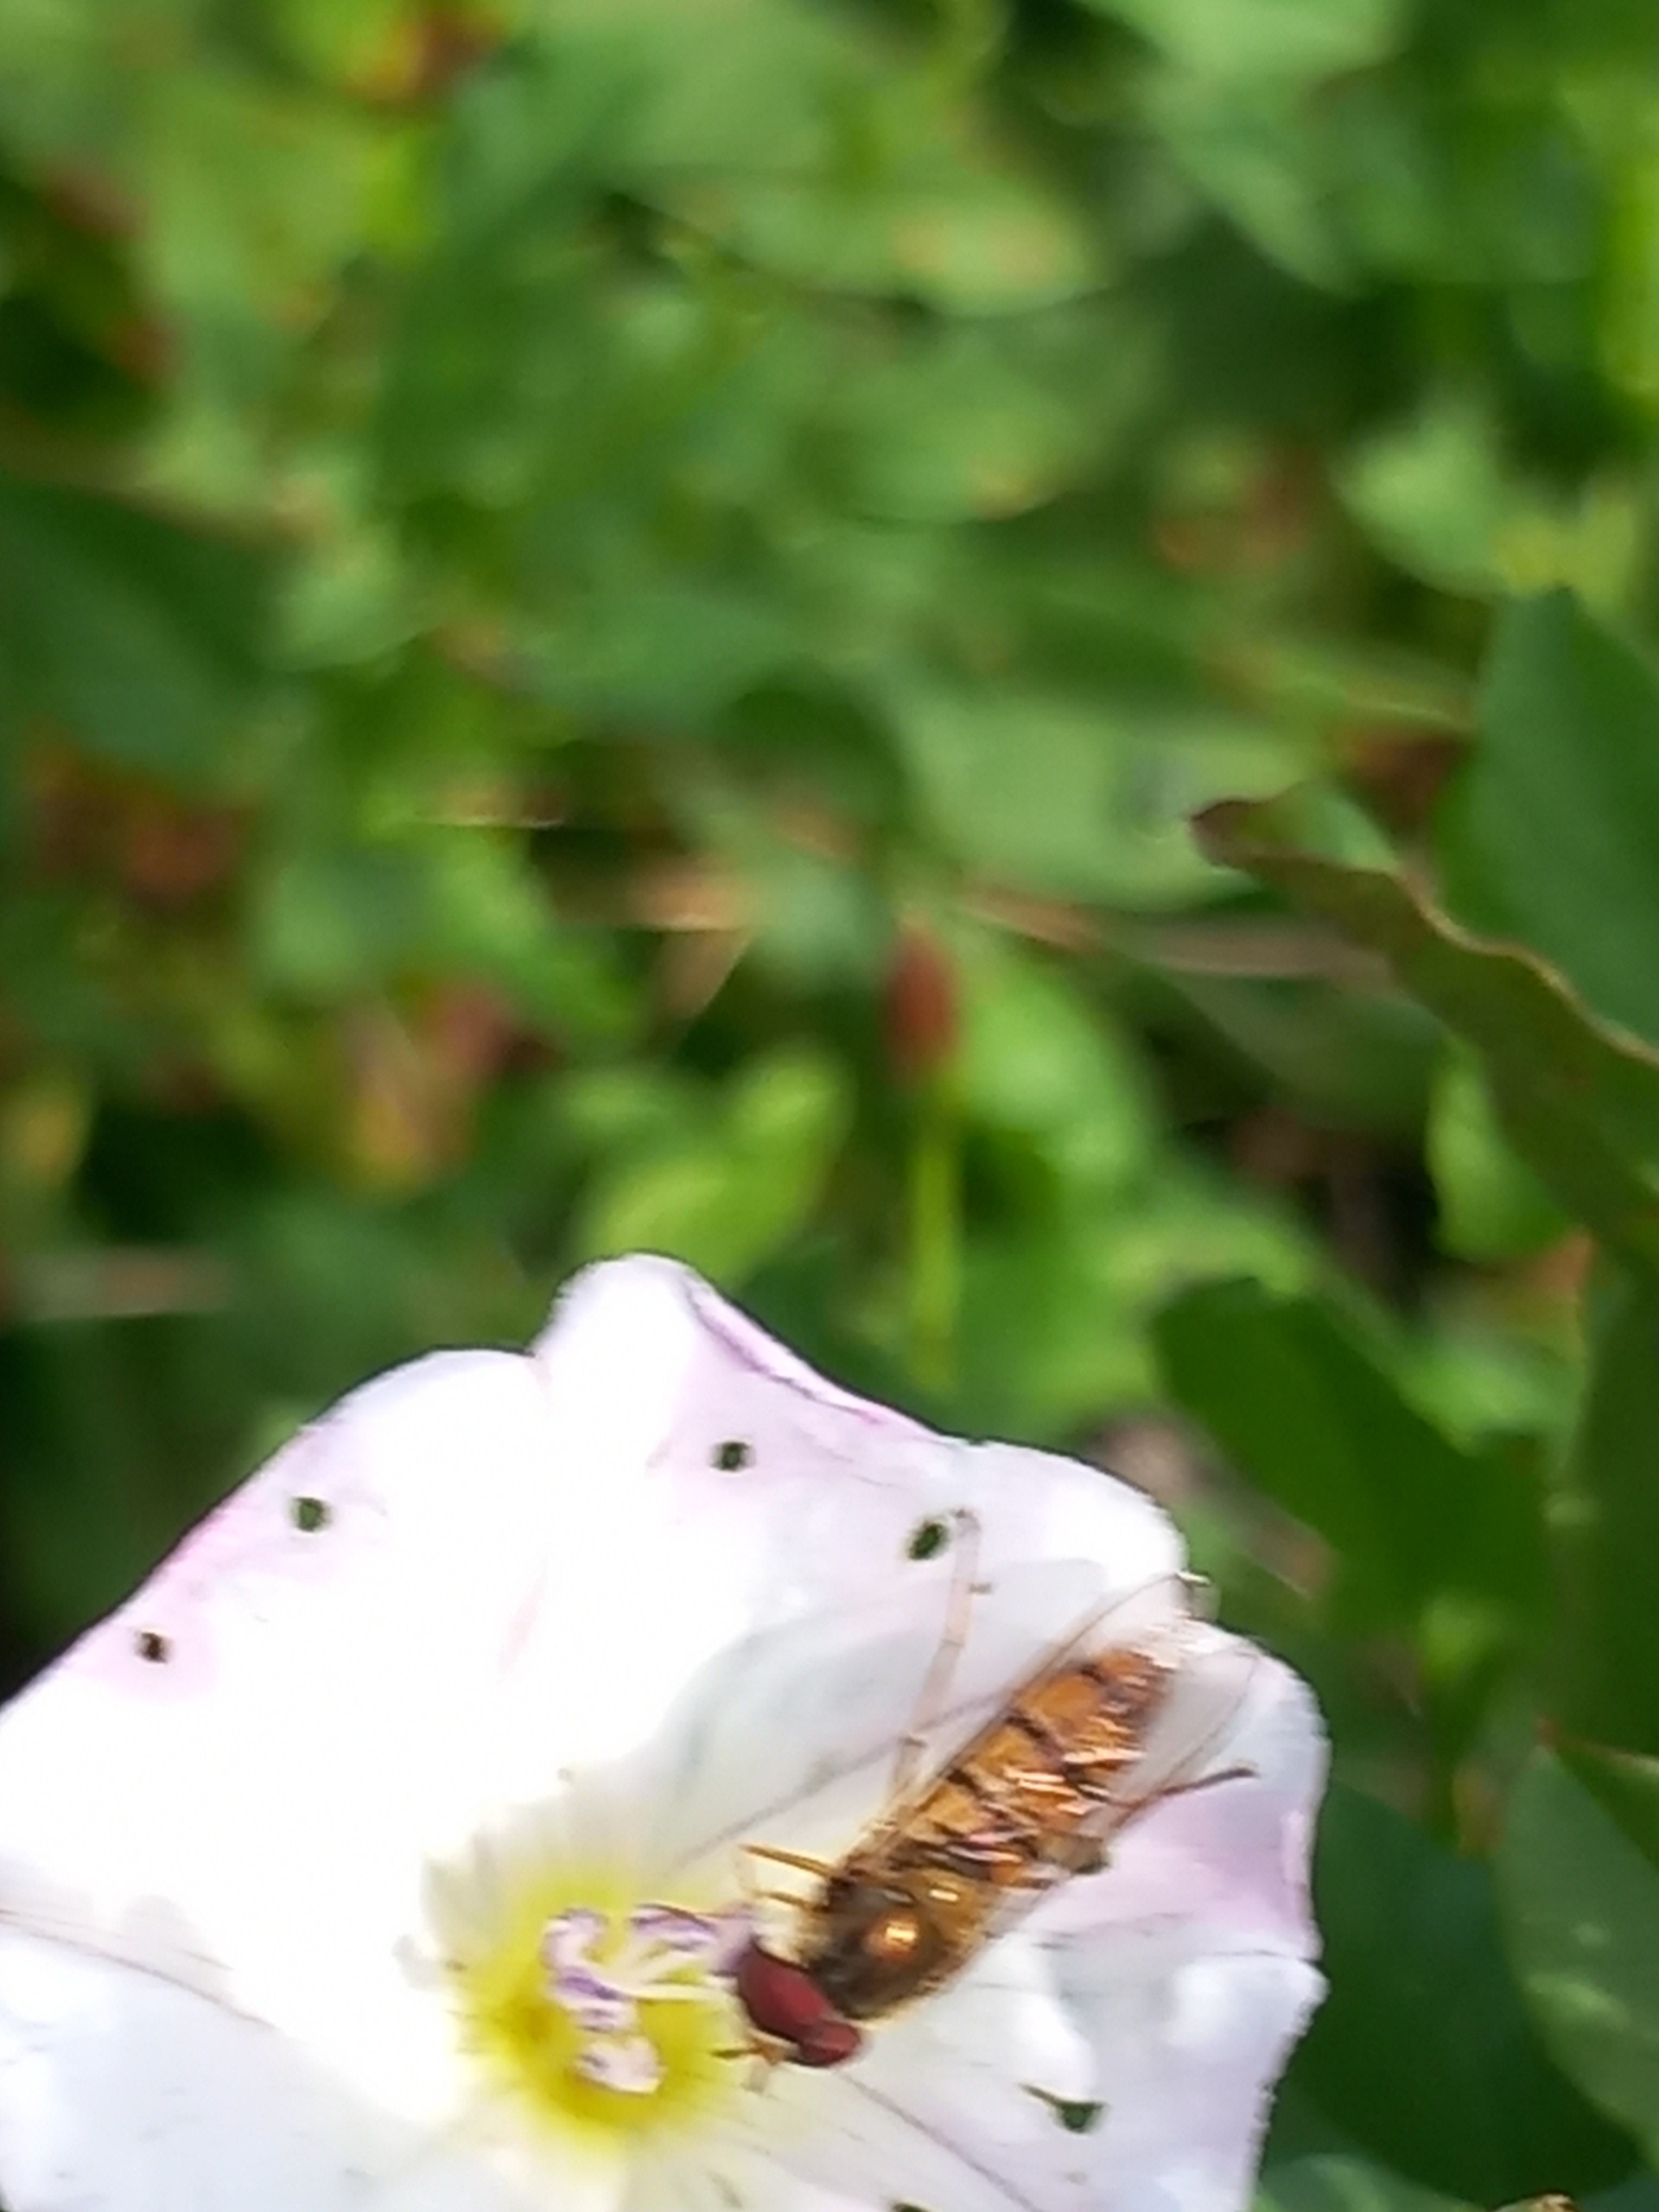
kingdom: Animalia
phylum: Arthropoda
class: Insecta
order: Diptera
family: Syrphidae
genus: Episyrphus
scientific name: Episyrphus balteatus
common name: Dobbeltbåndet svirreflue
